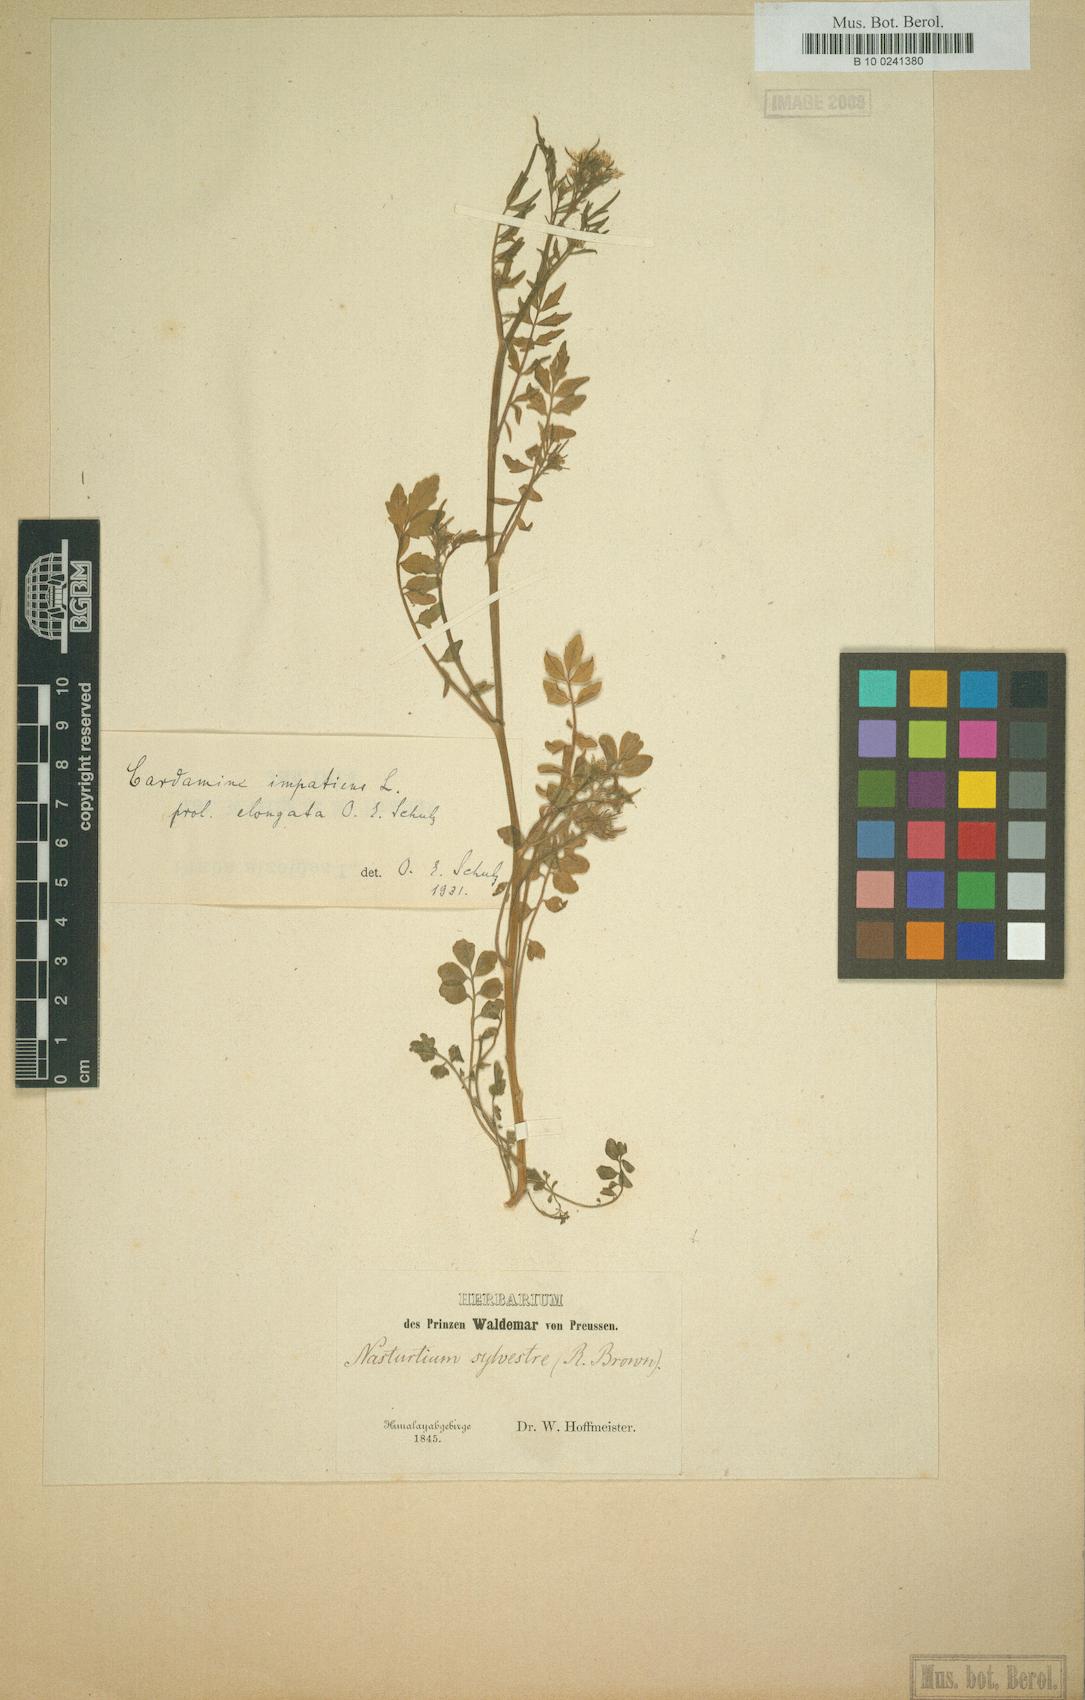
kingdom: Plantae
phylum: Tracheophyta
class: Magnoliopsida
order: Brassicales
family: Brassicaceae
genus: Cardamine
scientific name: Cardamine impatiens
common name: Narrow-leaved bitter-cress
